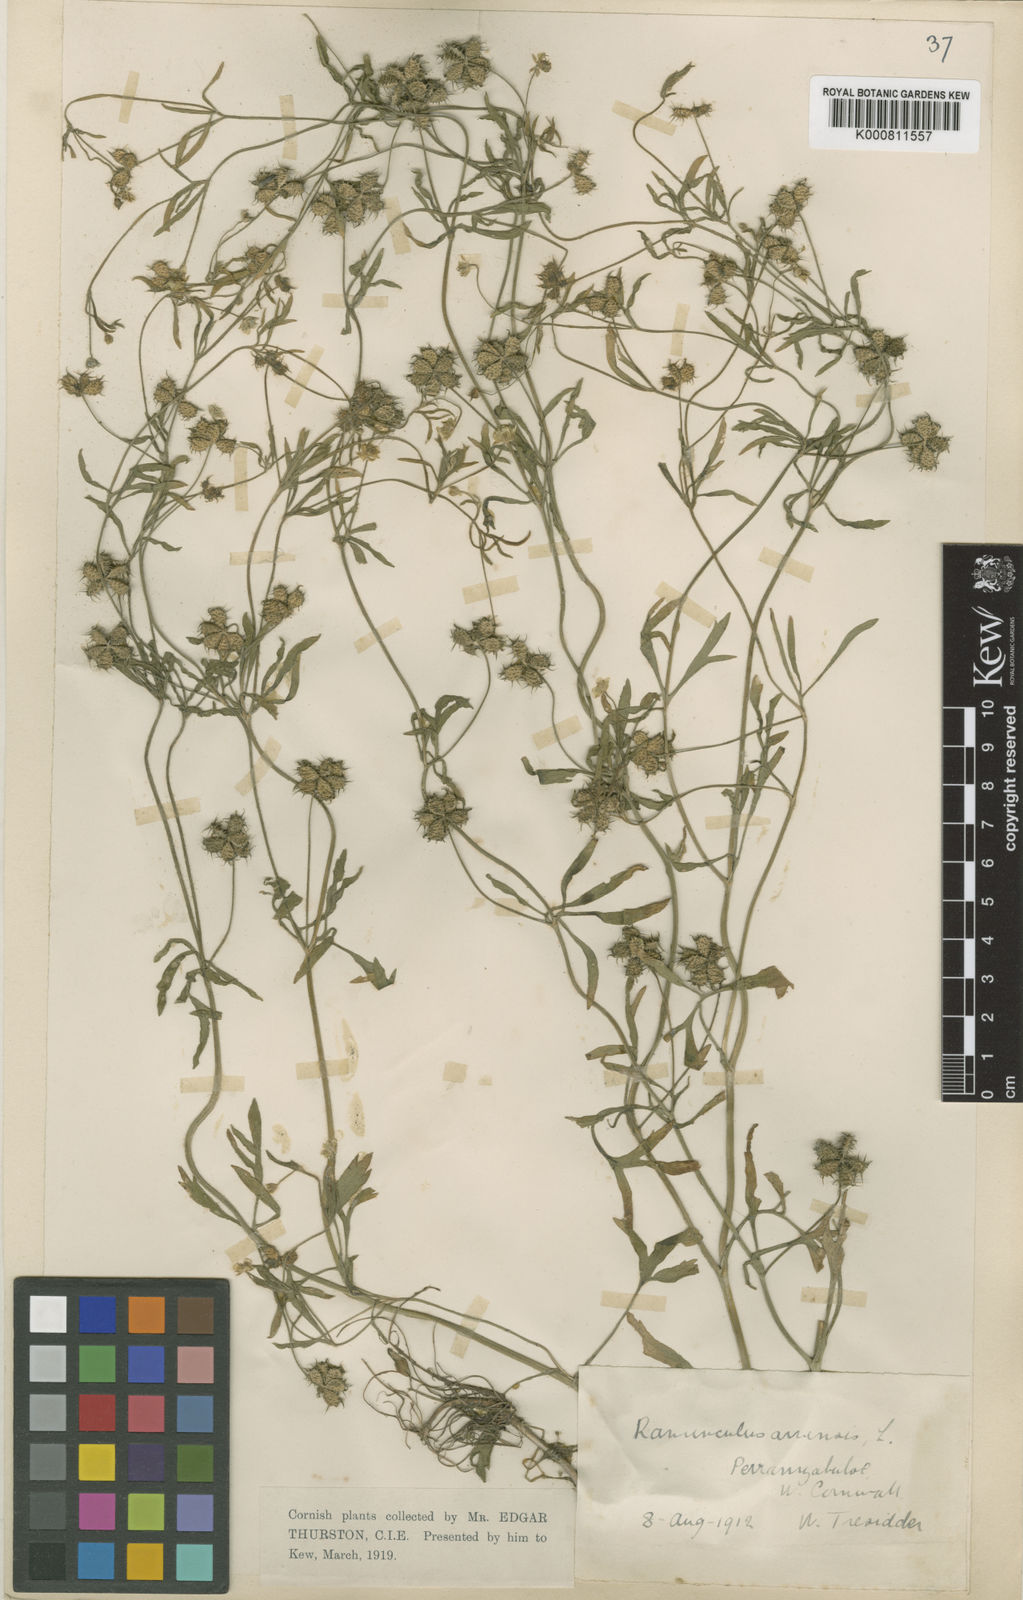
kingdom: Plantae
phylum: Tracheophyta
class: Magnoliopsida
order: Ranunculales
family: Ranunculaceae
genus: Ranunculus
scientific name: Ranunculus arvensis
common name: Corn buttercup
